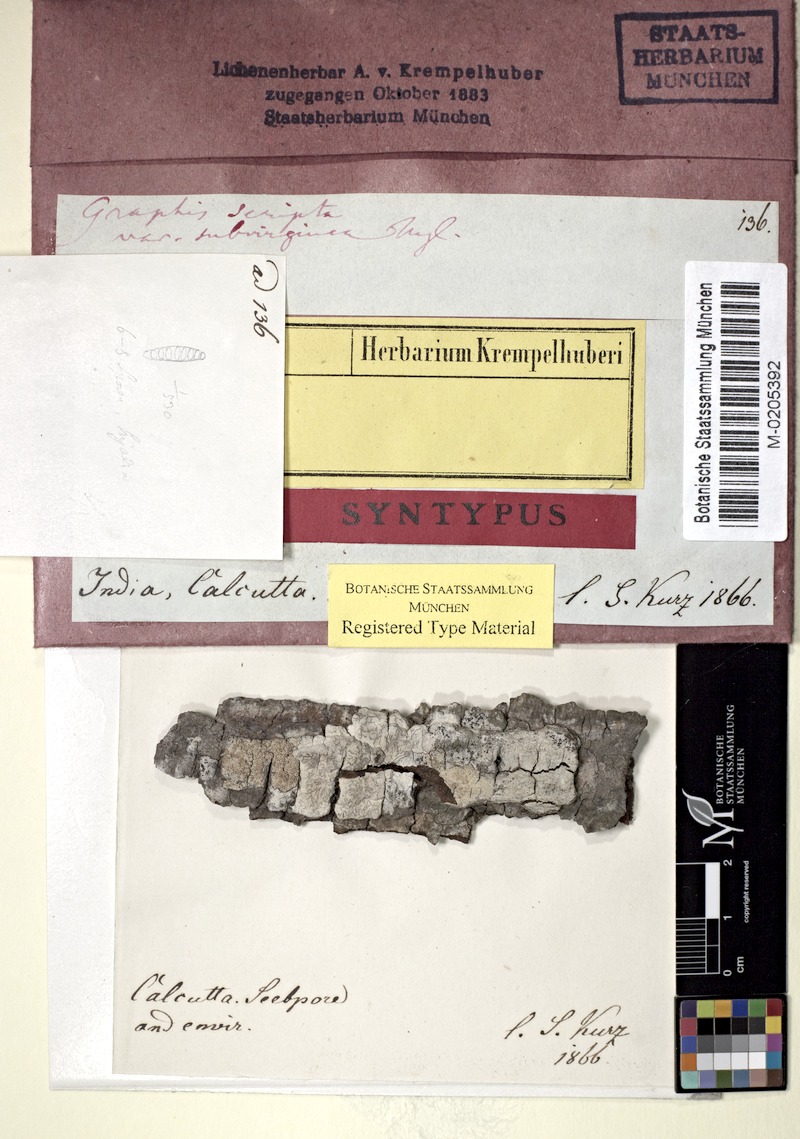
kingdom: Fungi
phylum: Ascomycota
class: Lecanoromycetes
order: Ostropales
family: Graphidaceae
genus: Graphis
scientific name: Graphis scripta
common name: Script lichen
